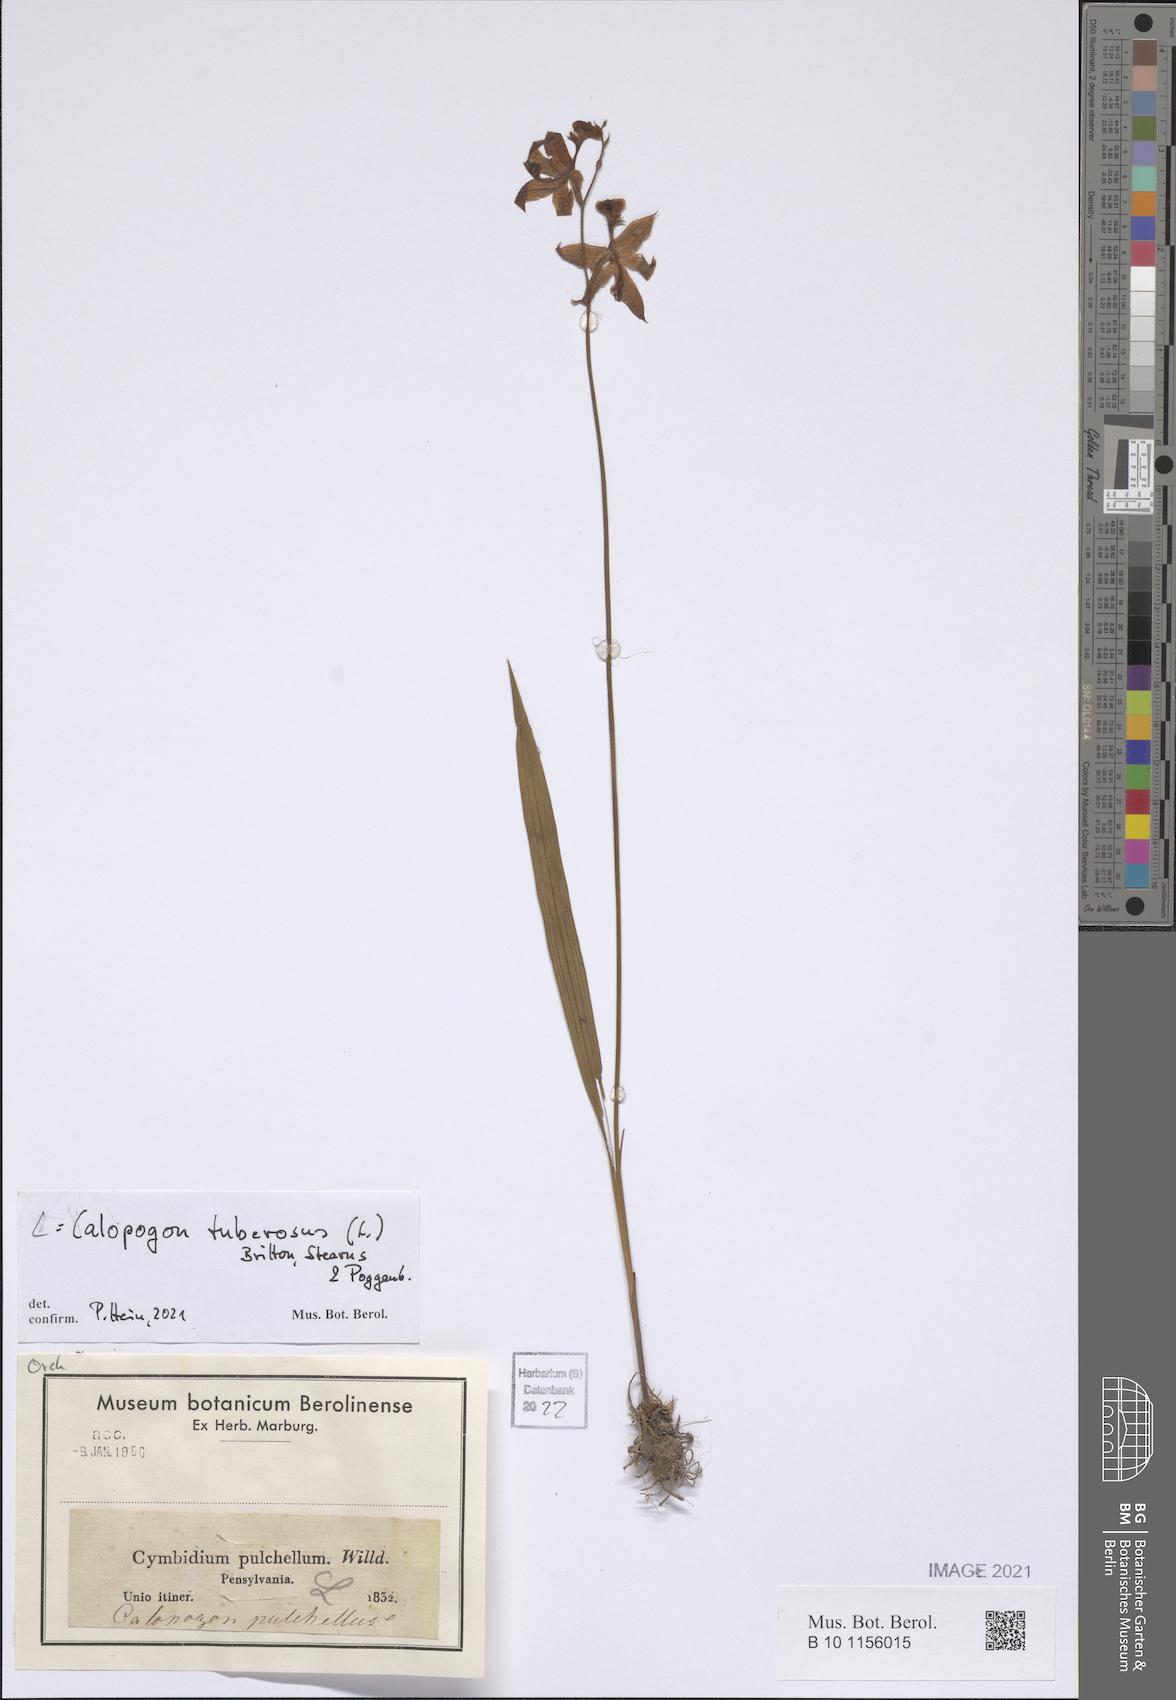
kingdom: Plantae
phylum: Tracheophyta
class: Liliopsida
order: Asparagales
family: Orchidaceae
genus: Calopogon
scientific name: Calopogon tuberosus
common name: Grass-pink
